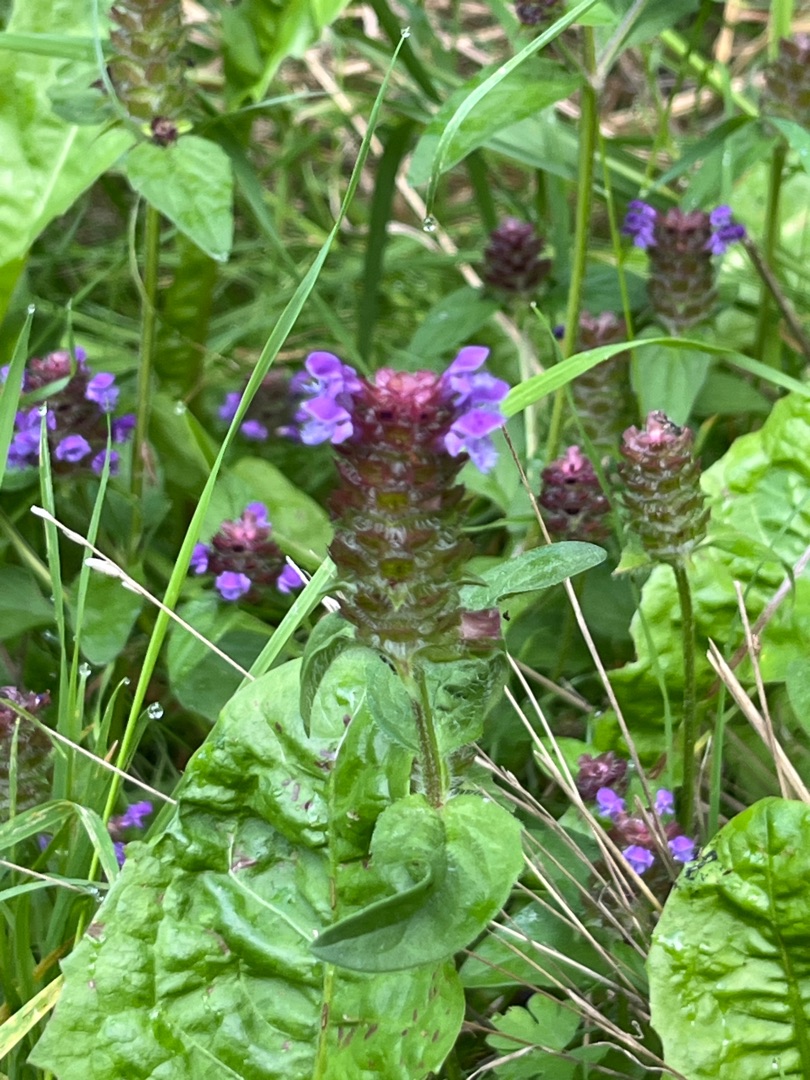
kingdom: Plantae
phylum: Tracheophyta
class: Magnoliopsida
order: Lamiales
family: Lamiaceae
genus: Prunella
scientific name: Prunella vulgaris
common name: Almindelig brunelle
